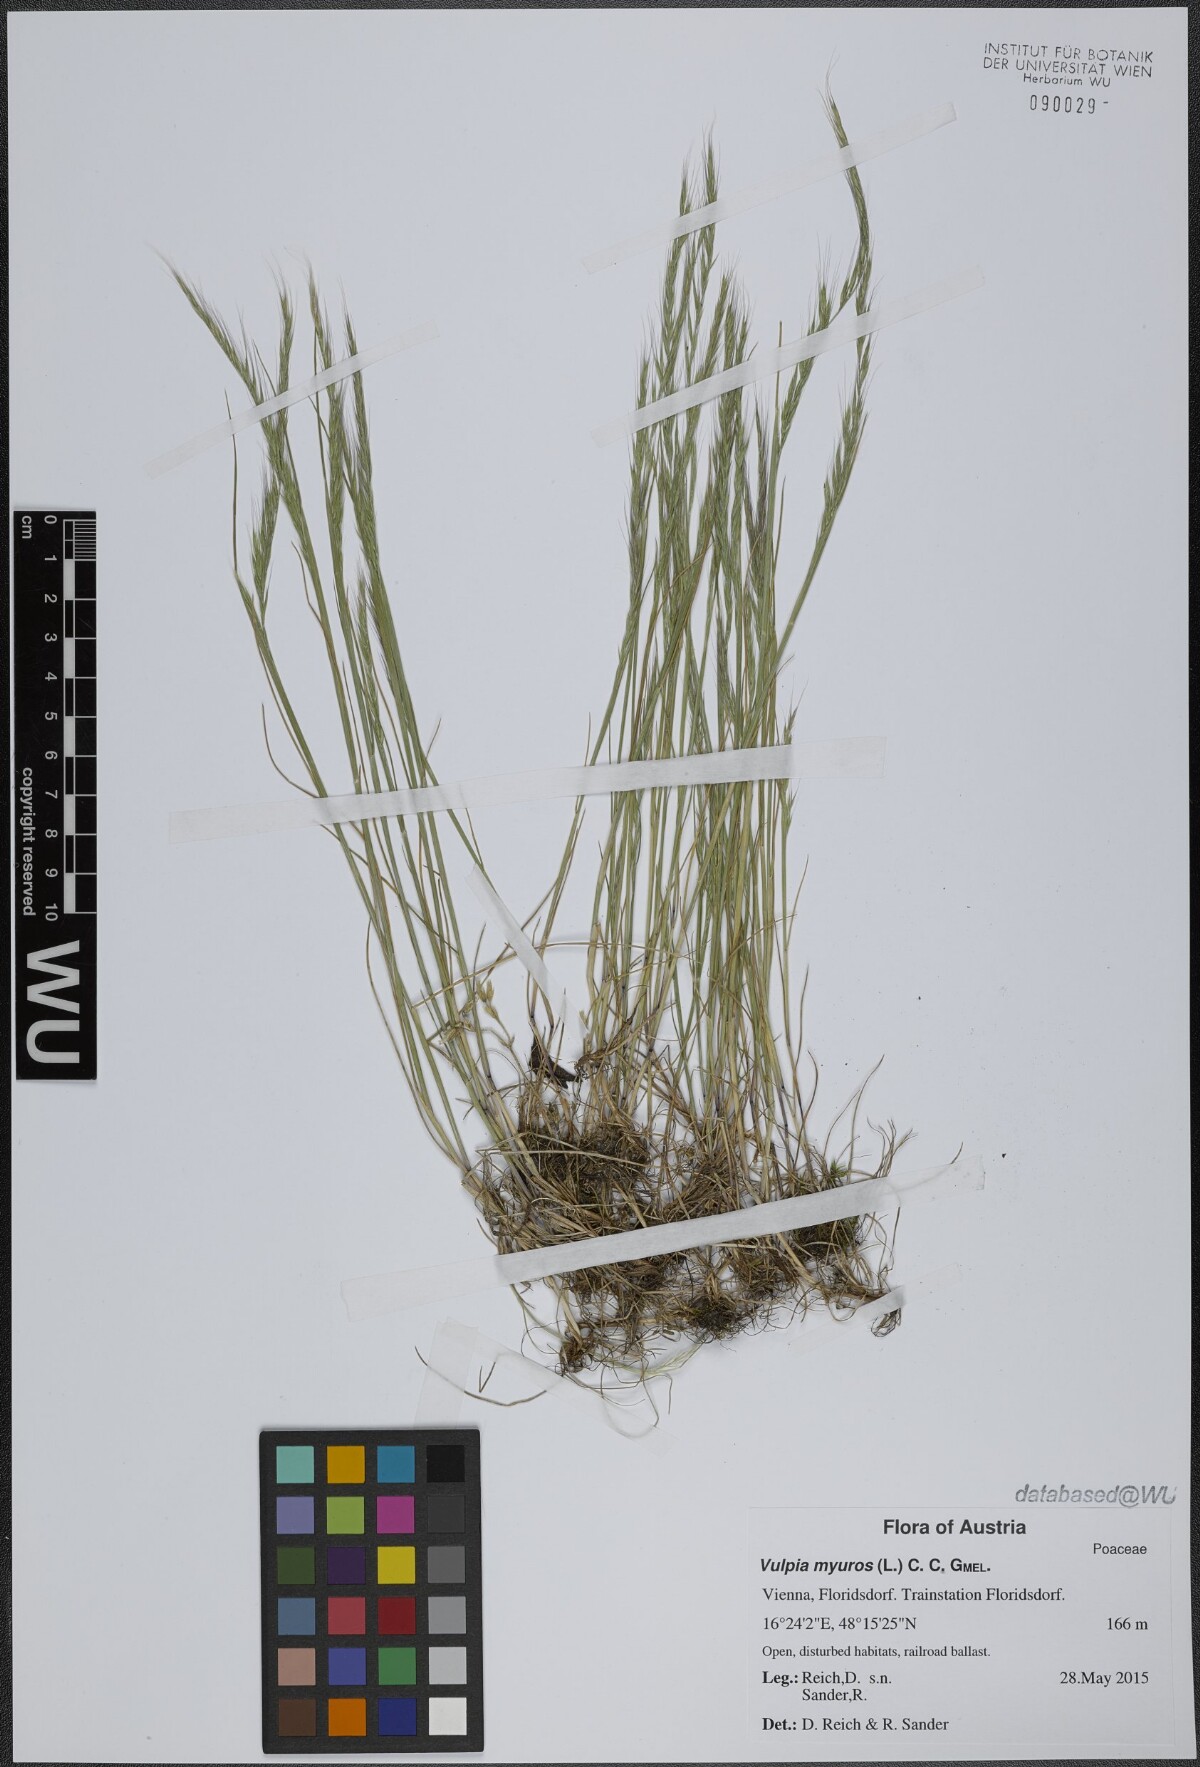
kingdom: Plantae
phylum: Tracheophyta
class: Liliopsida
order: Poales
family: Poaceae
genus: Festuca
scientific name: Festuca myuros
